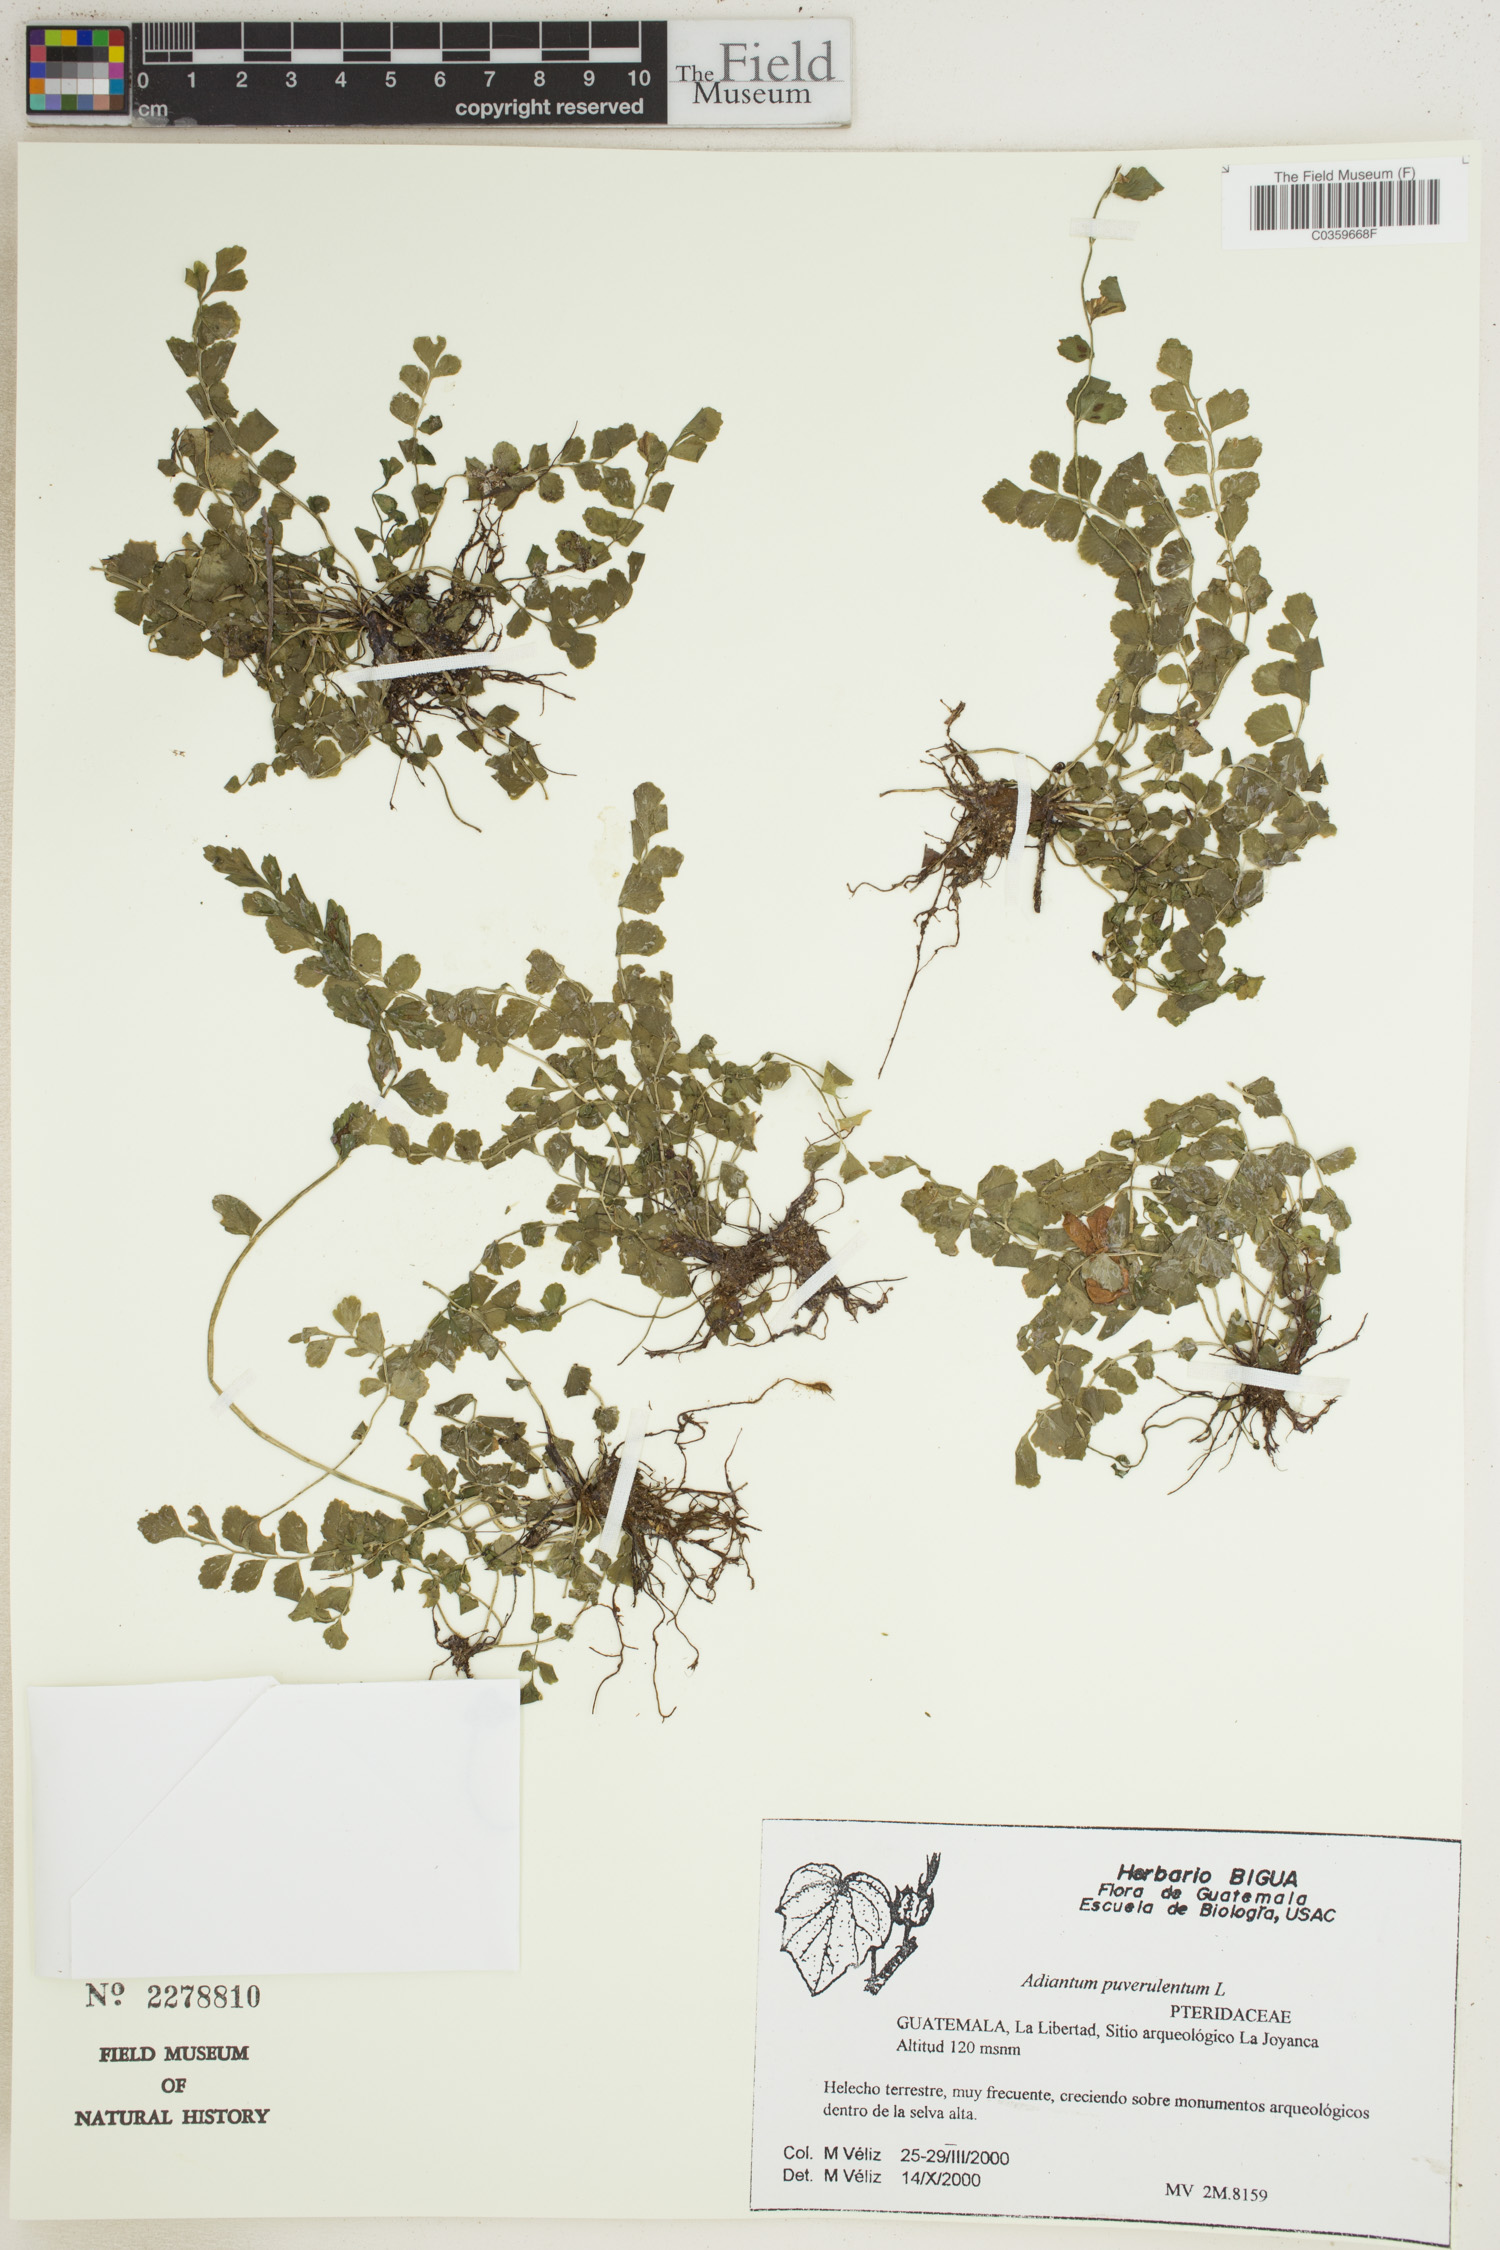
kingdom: Plantae
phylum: Tracheophyta
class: Polypodiopsida
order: Polypodiales
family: Pteridaceae
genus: Adiantum
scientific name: Adiantum pulverulentum
